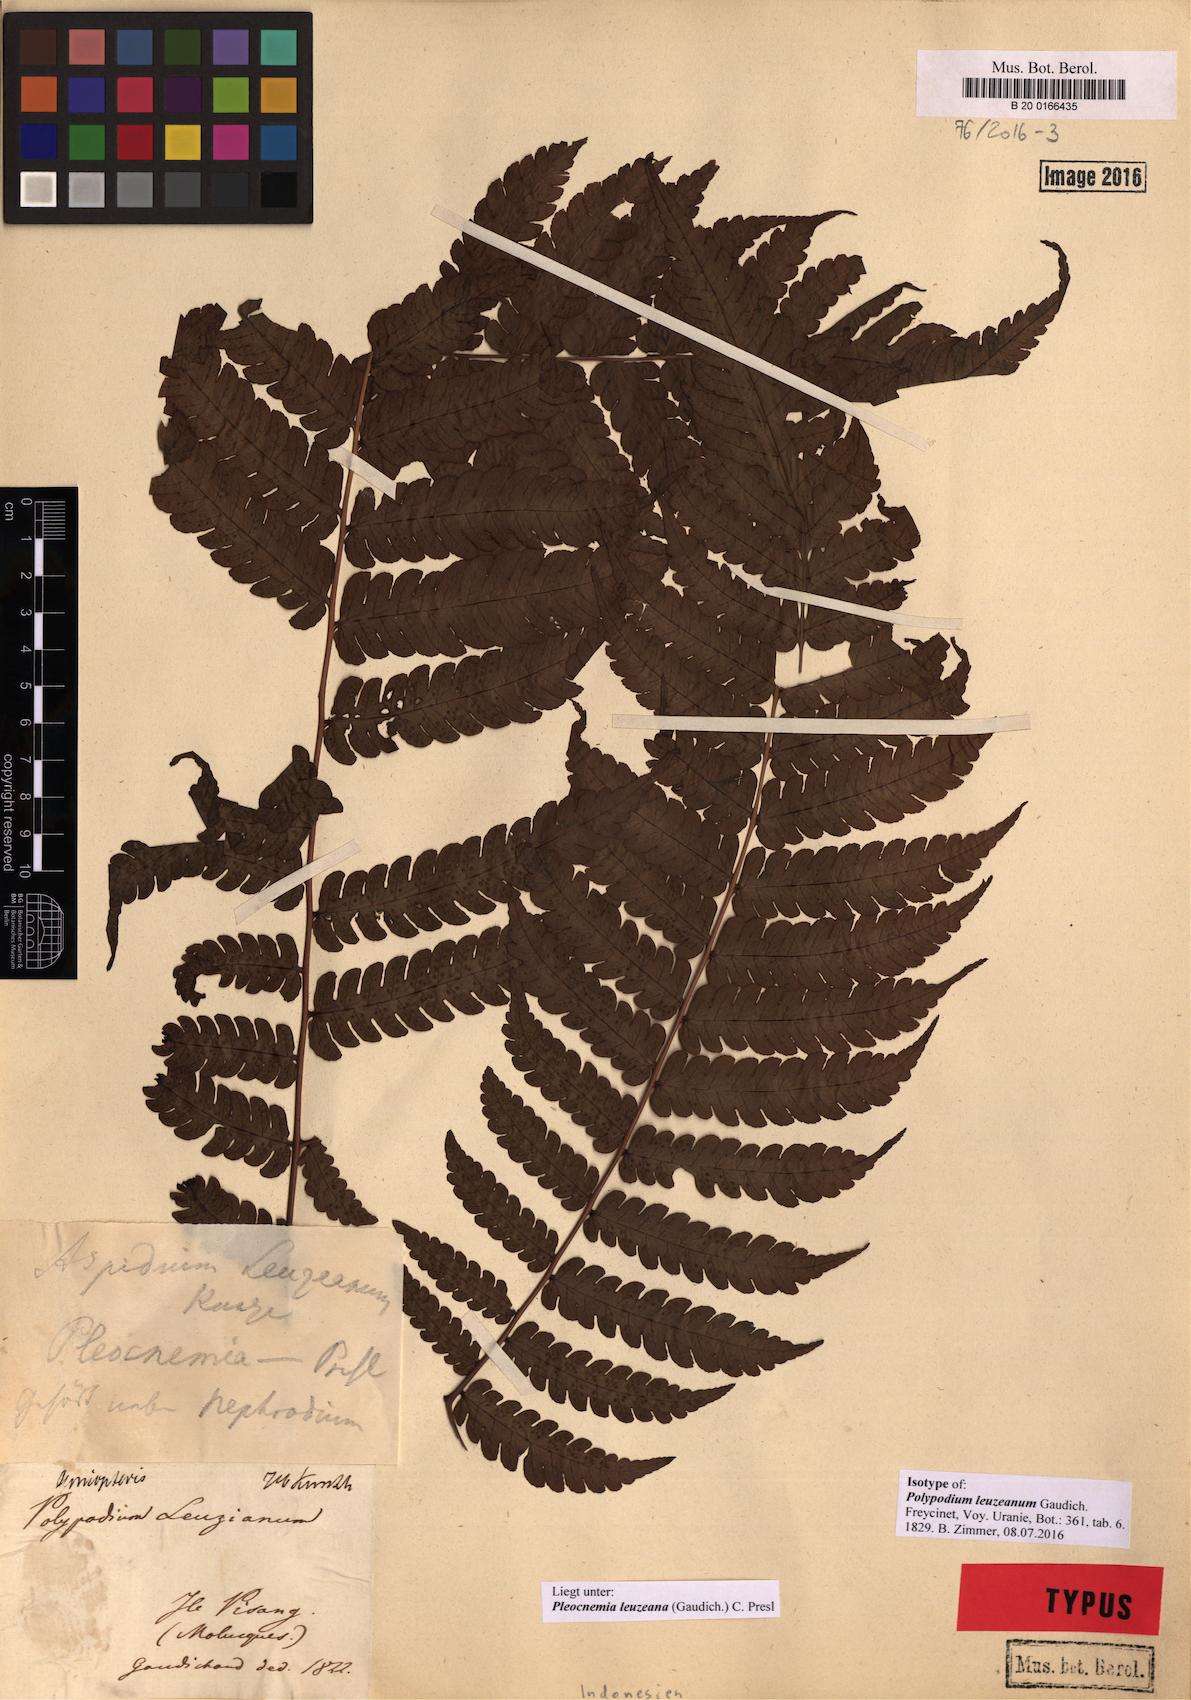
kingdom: Plantae
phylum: Tracheophyta
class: Polypodiopsida
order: Polypodiales
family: Dryopteridaceae
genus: Pleocnemia
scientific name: Pleocnemia leuzeana
